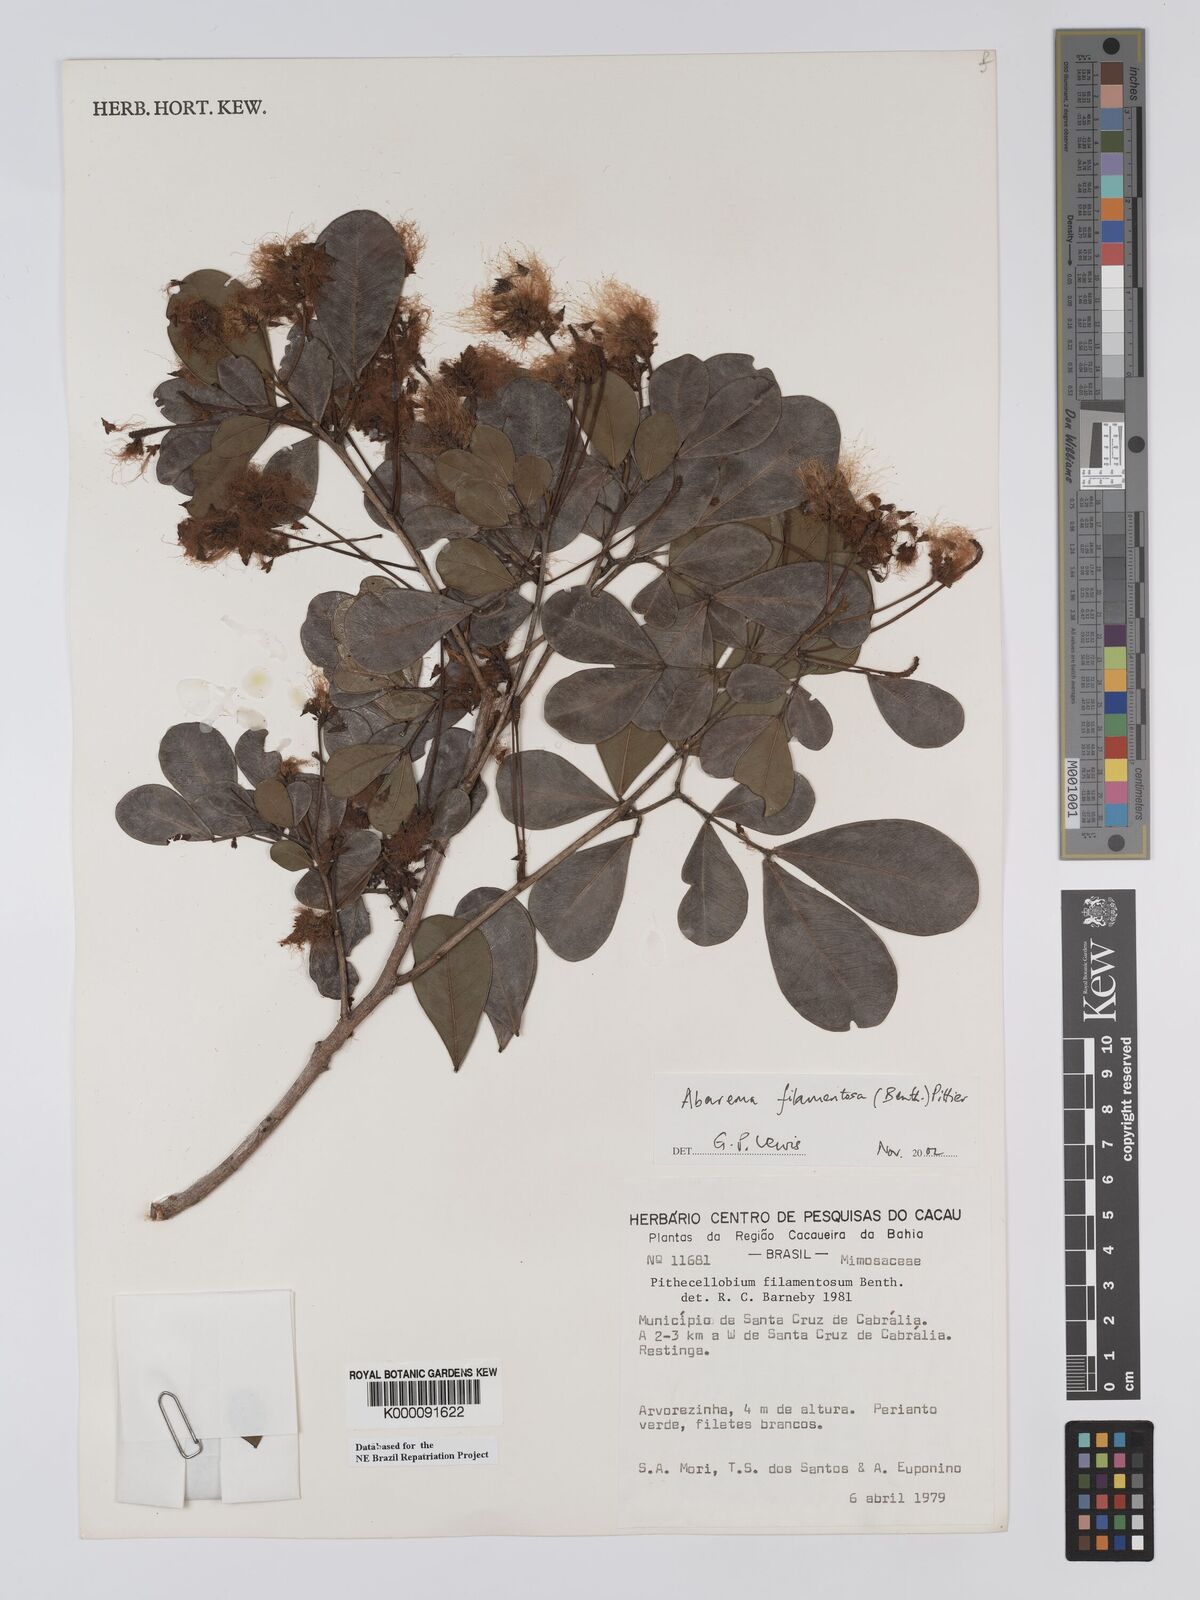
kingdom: Plantae
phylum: Tracheophyta
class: Magnoliopsida
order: Fabales
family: Fabaceae
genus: Jupunba
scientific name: Jupunba filamentosa
